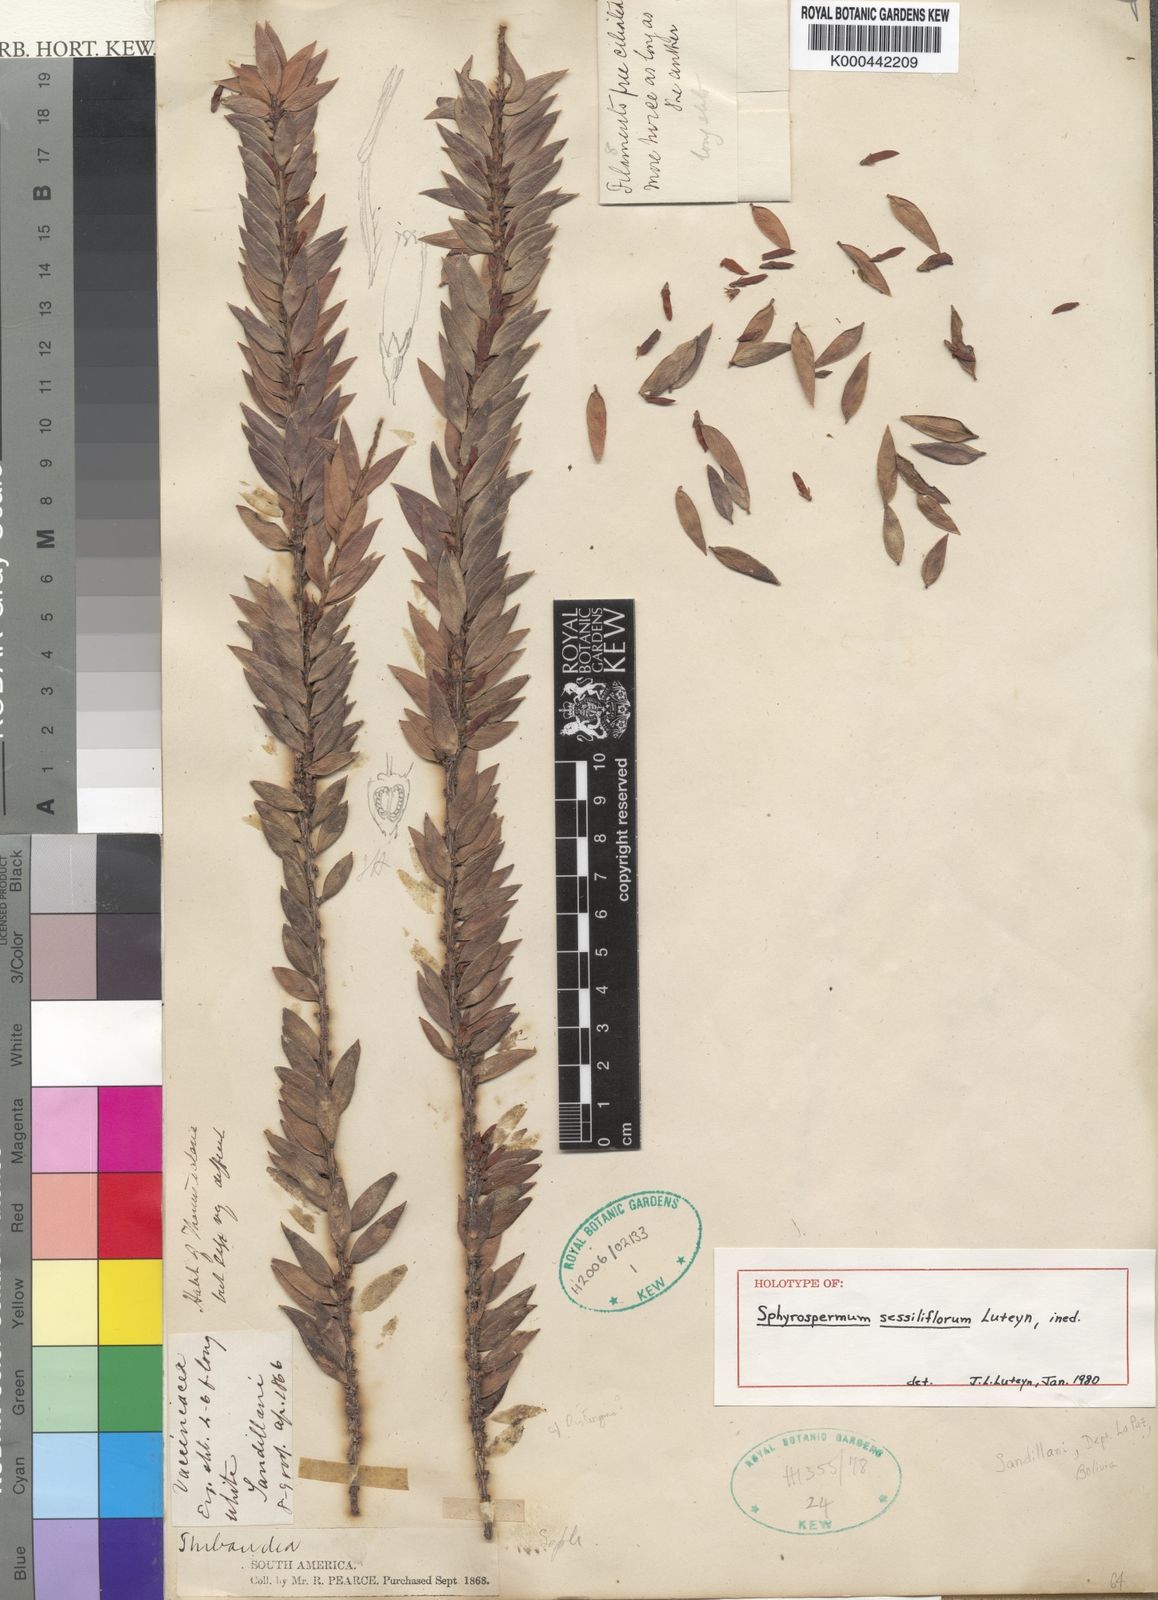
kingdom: Plantae
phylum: Tracheophyta
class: Magnoliopsida
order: Ericales
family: Ericaceae
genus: Sphyrospermum
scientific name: Sphyrospermum sessiliflorum
